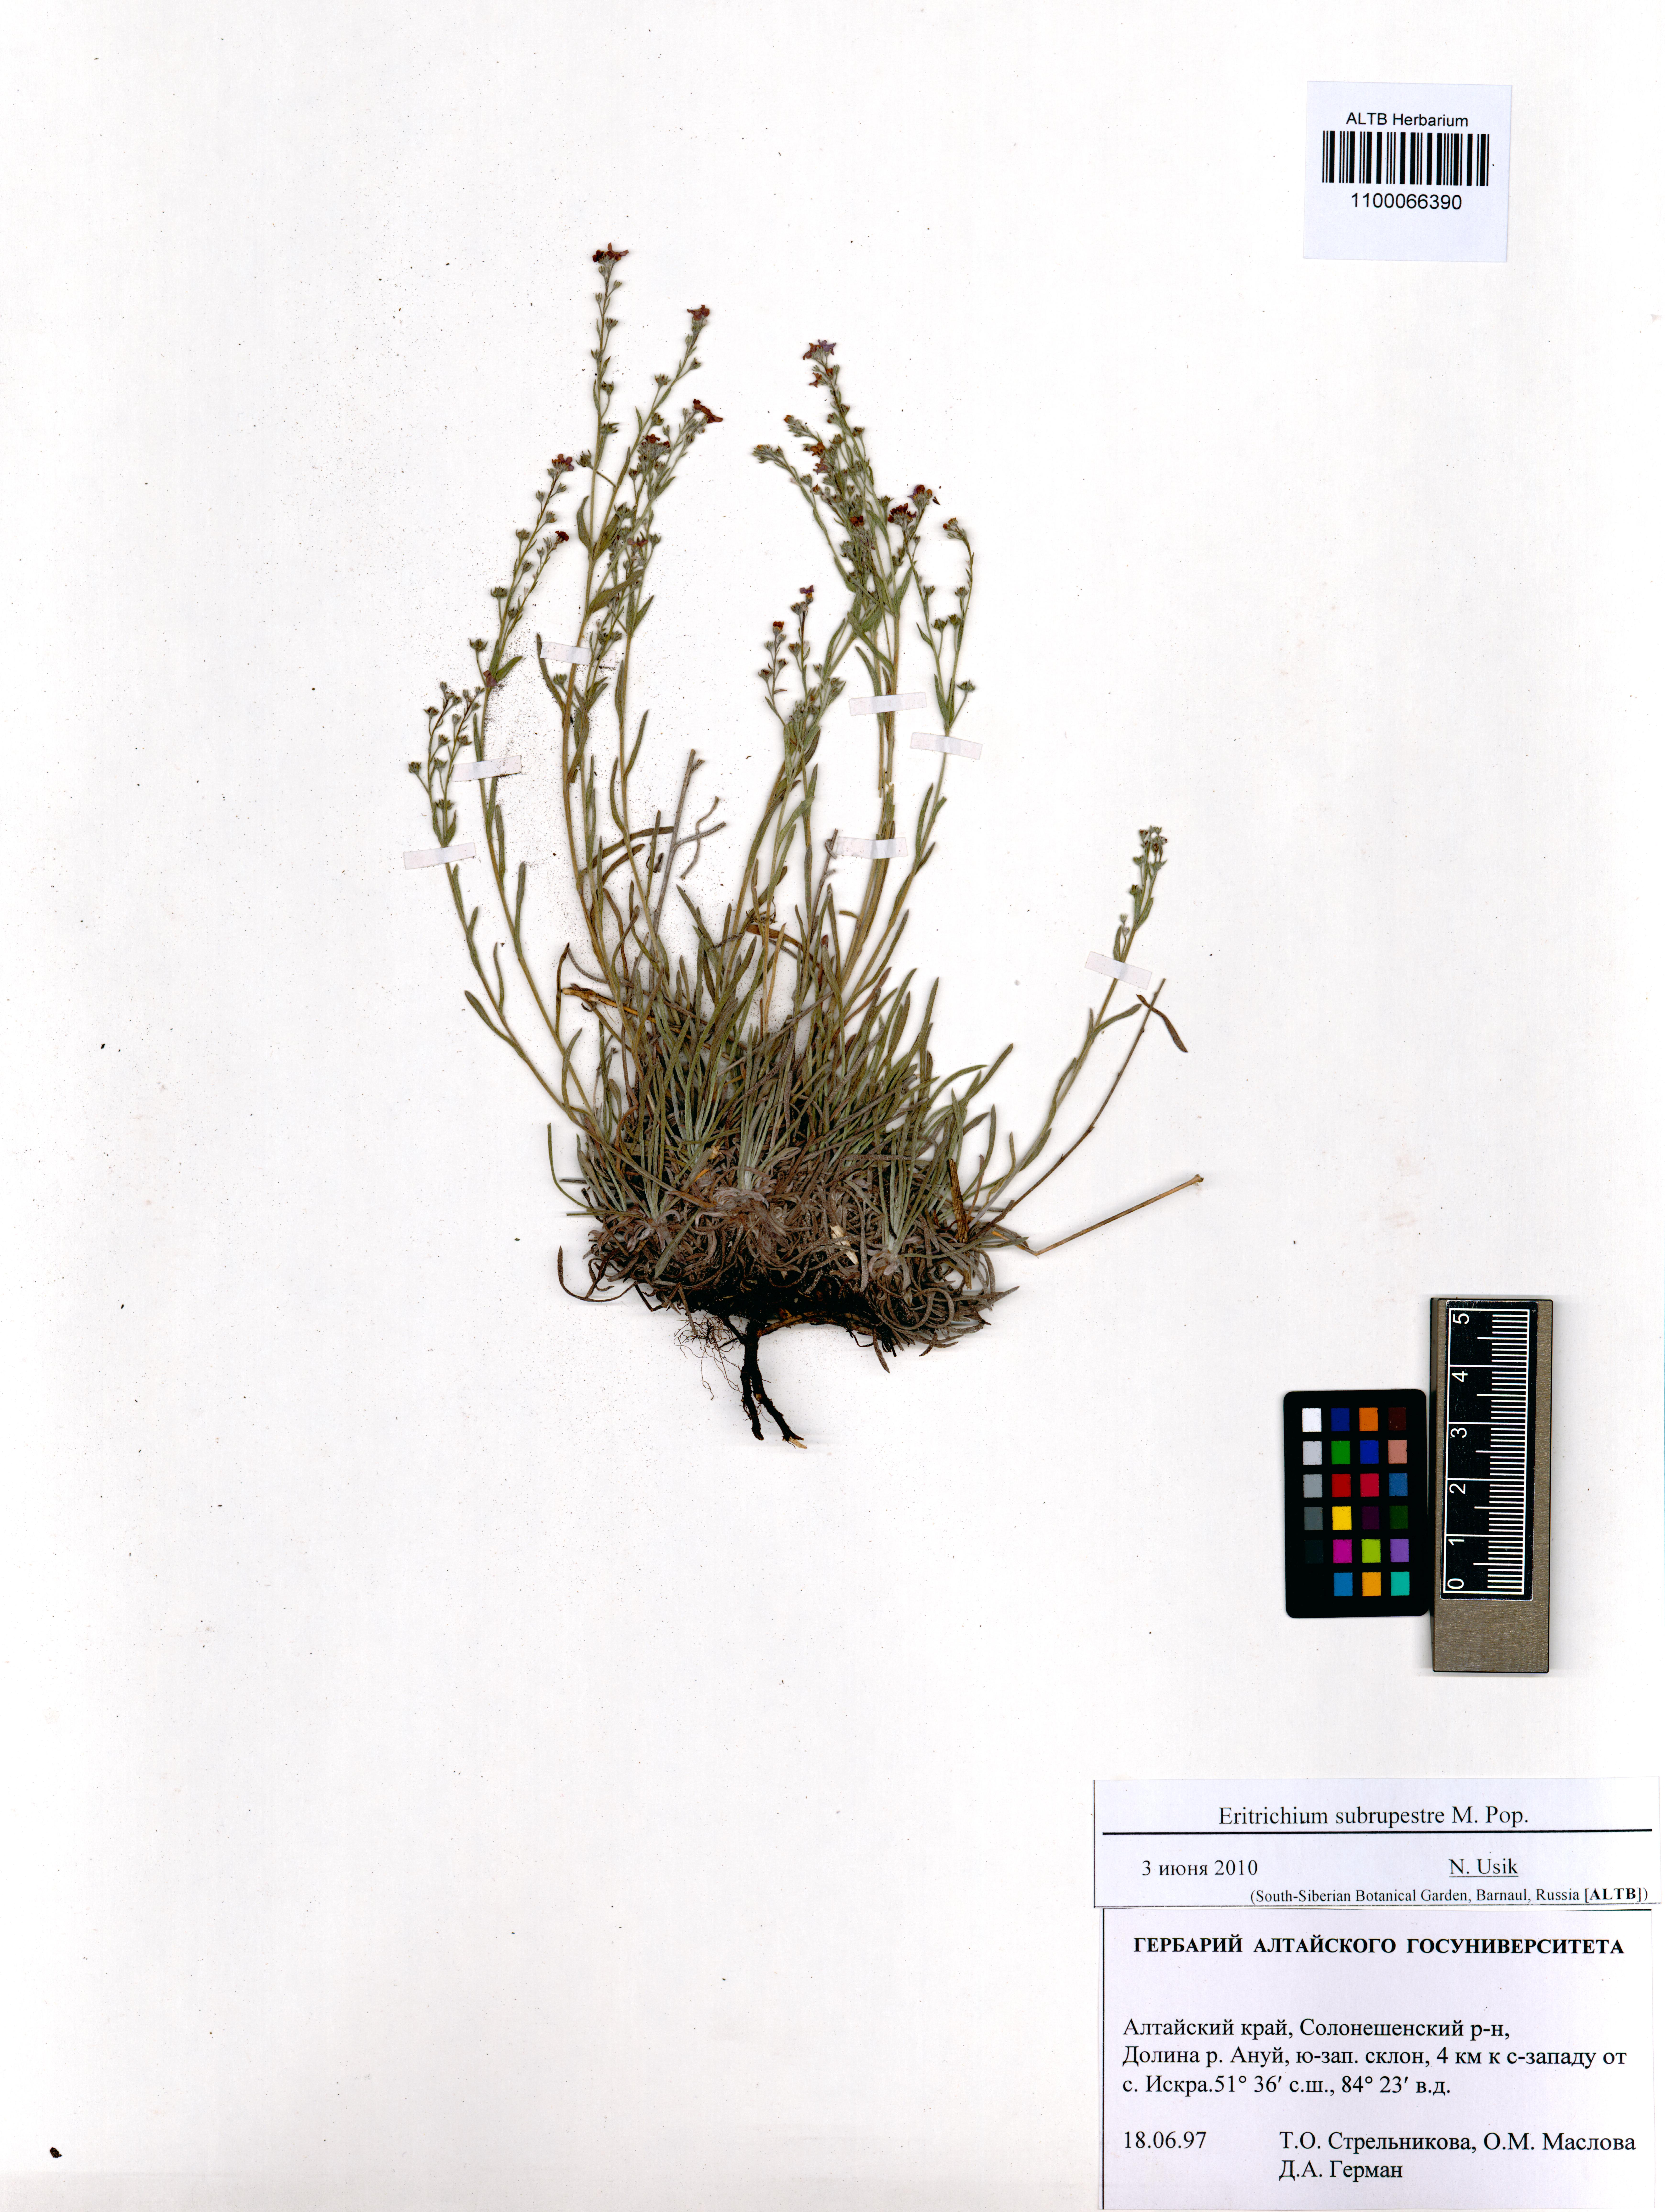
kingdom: Plantae
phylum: Tracheophyta
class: Magnoliopsida
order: Boraginales
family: Boraginaceae
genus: Eritrichium
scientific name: Eritrichium pauciflorum
